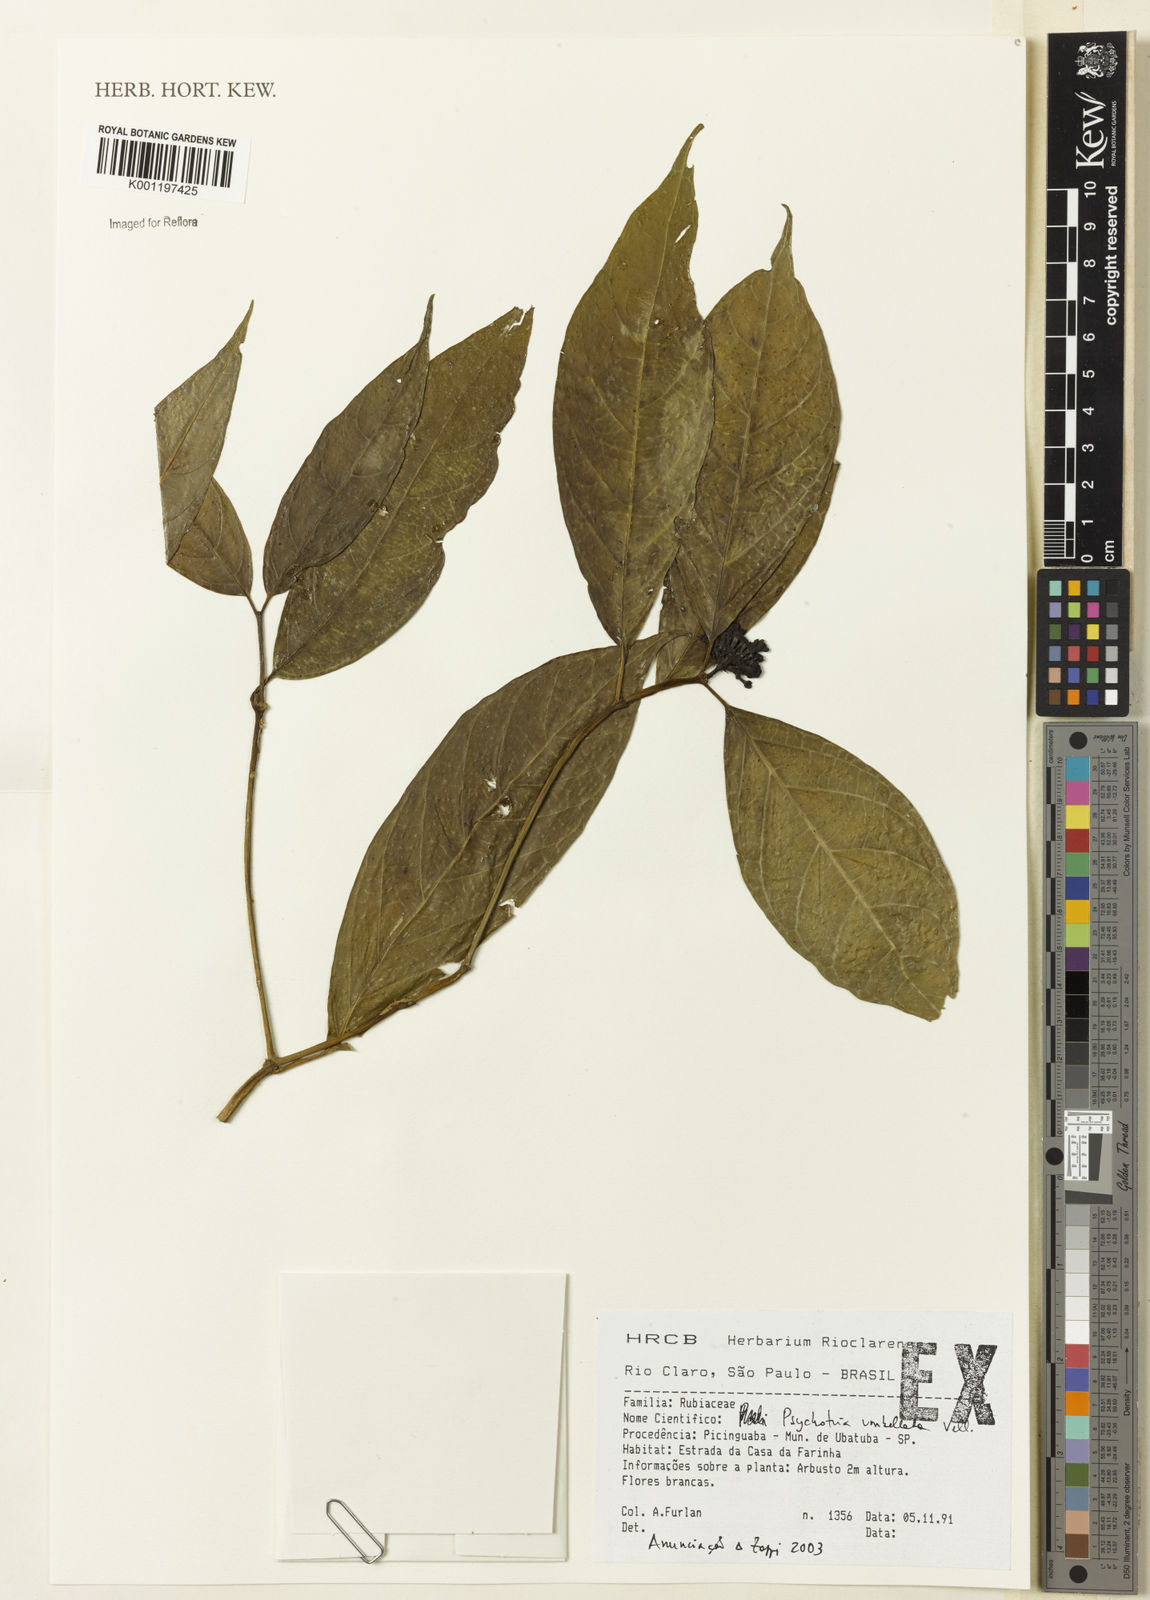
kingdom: Plantae
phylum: Tracheophyta
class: Magnoliopsida
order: Gentianales
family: Rubiaceae
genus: Psychotria
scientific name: Psychotria
